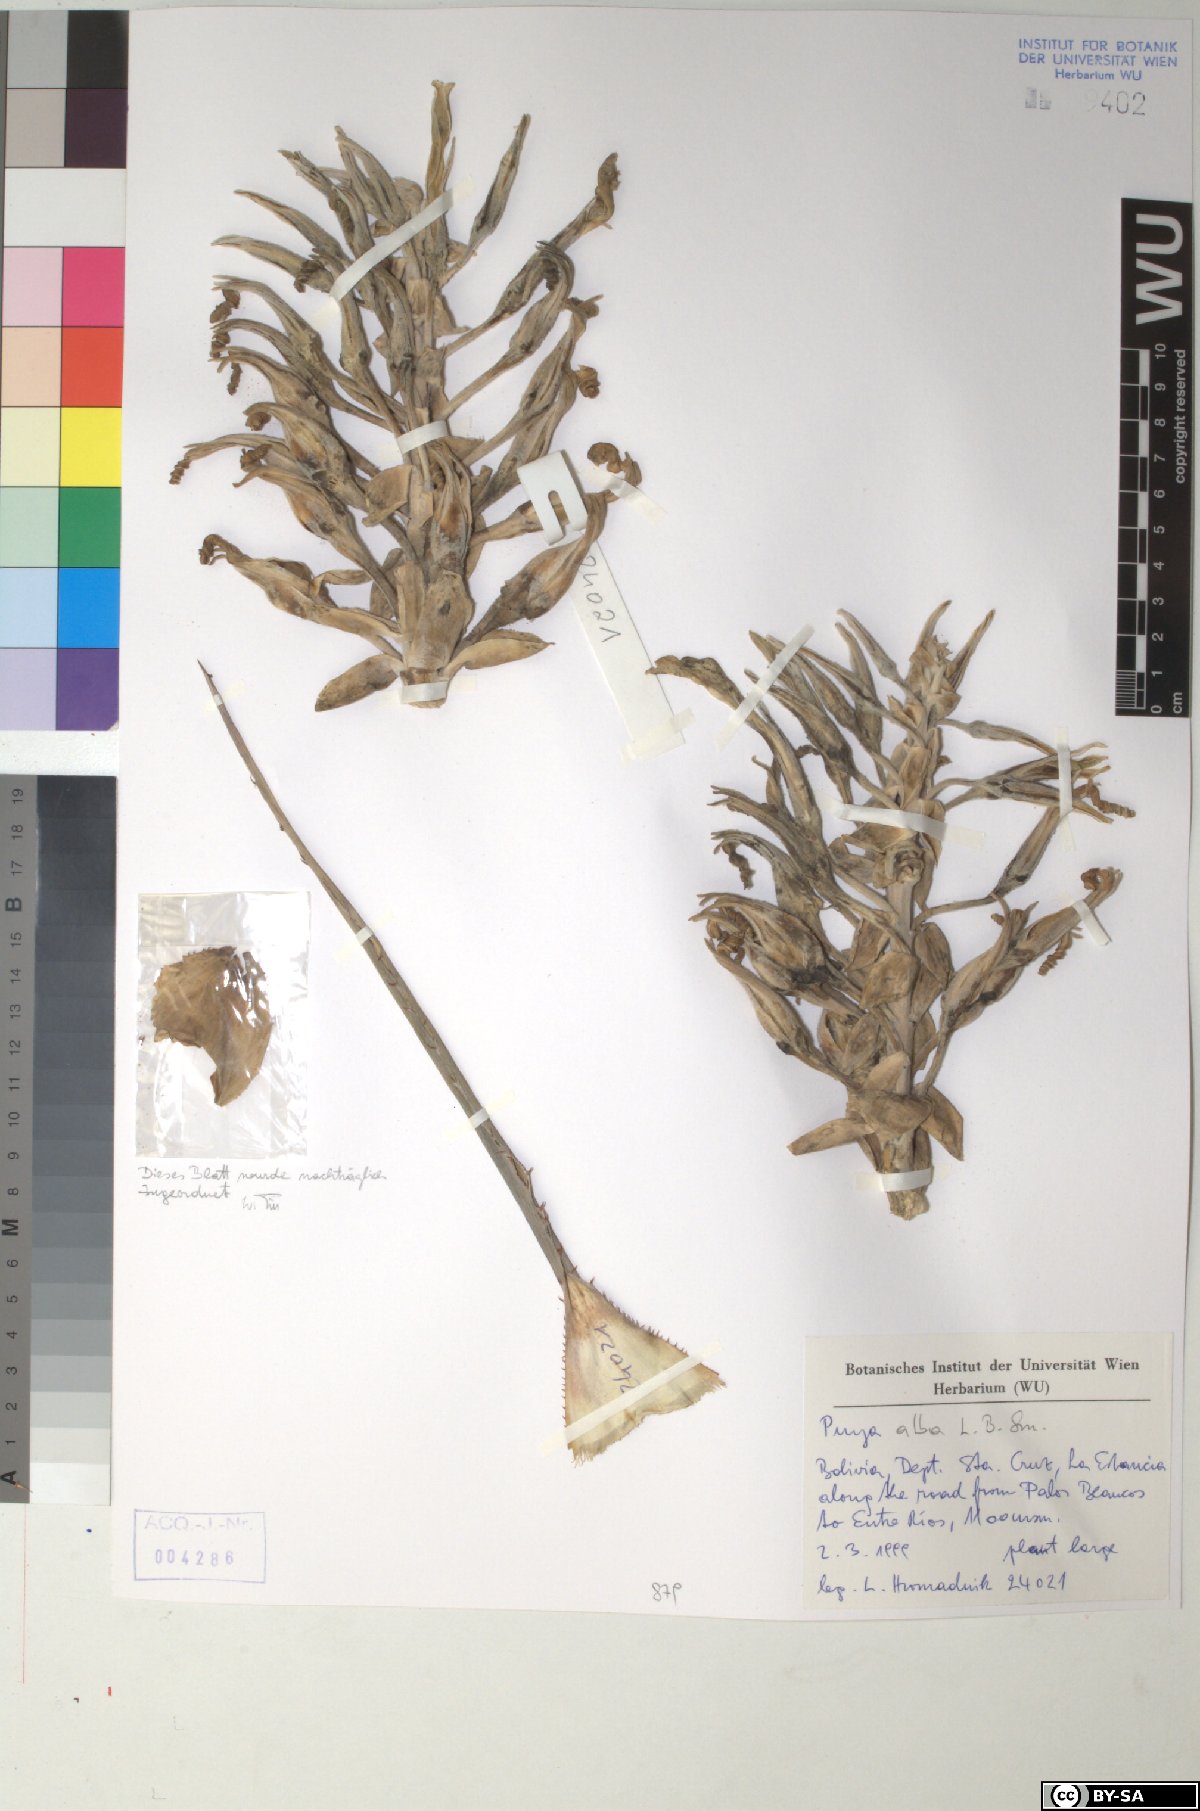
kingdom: Plantae
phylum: Tracheophyta
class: Liliopsida
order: Poales
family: Bromeliaceae
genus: Puya
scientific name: Puya alba
